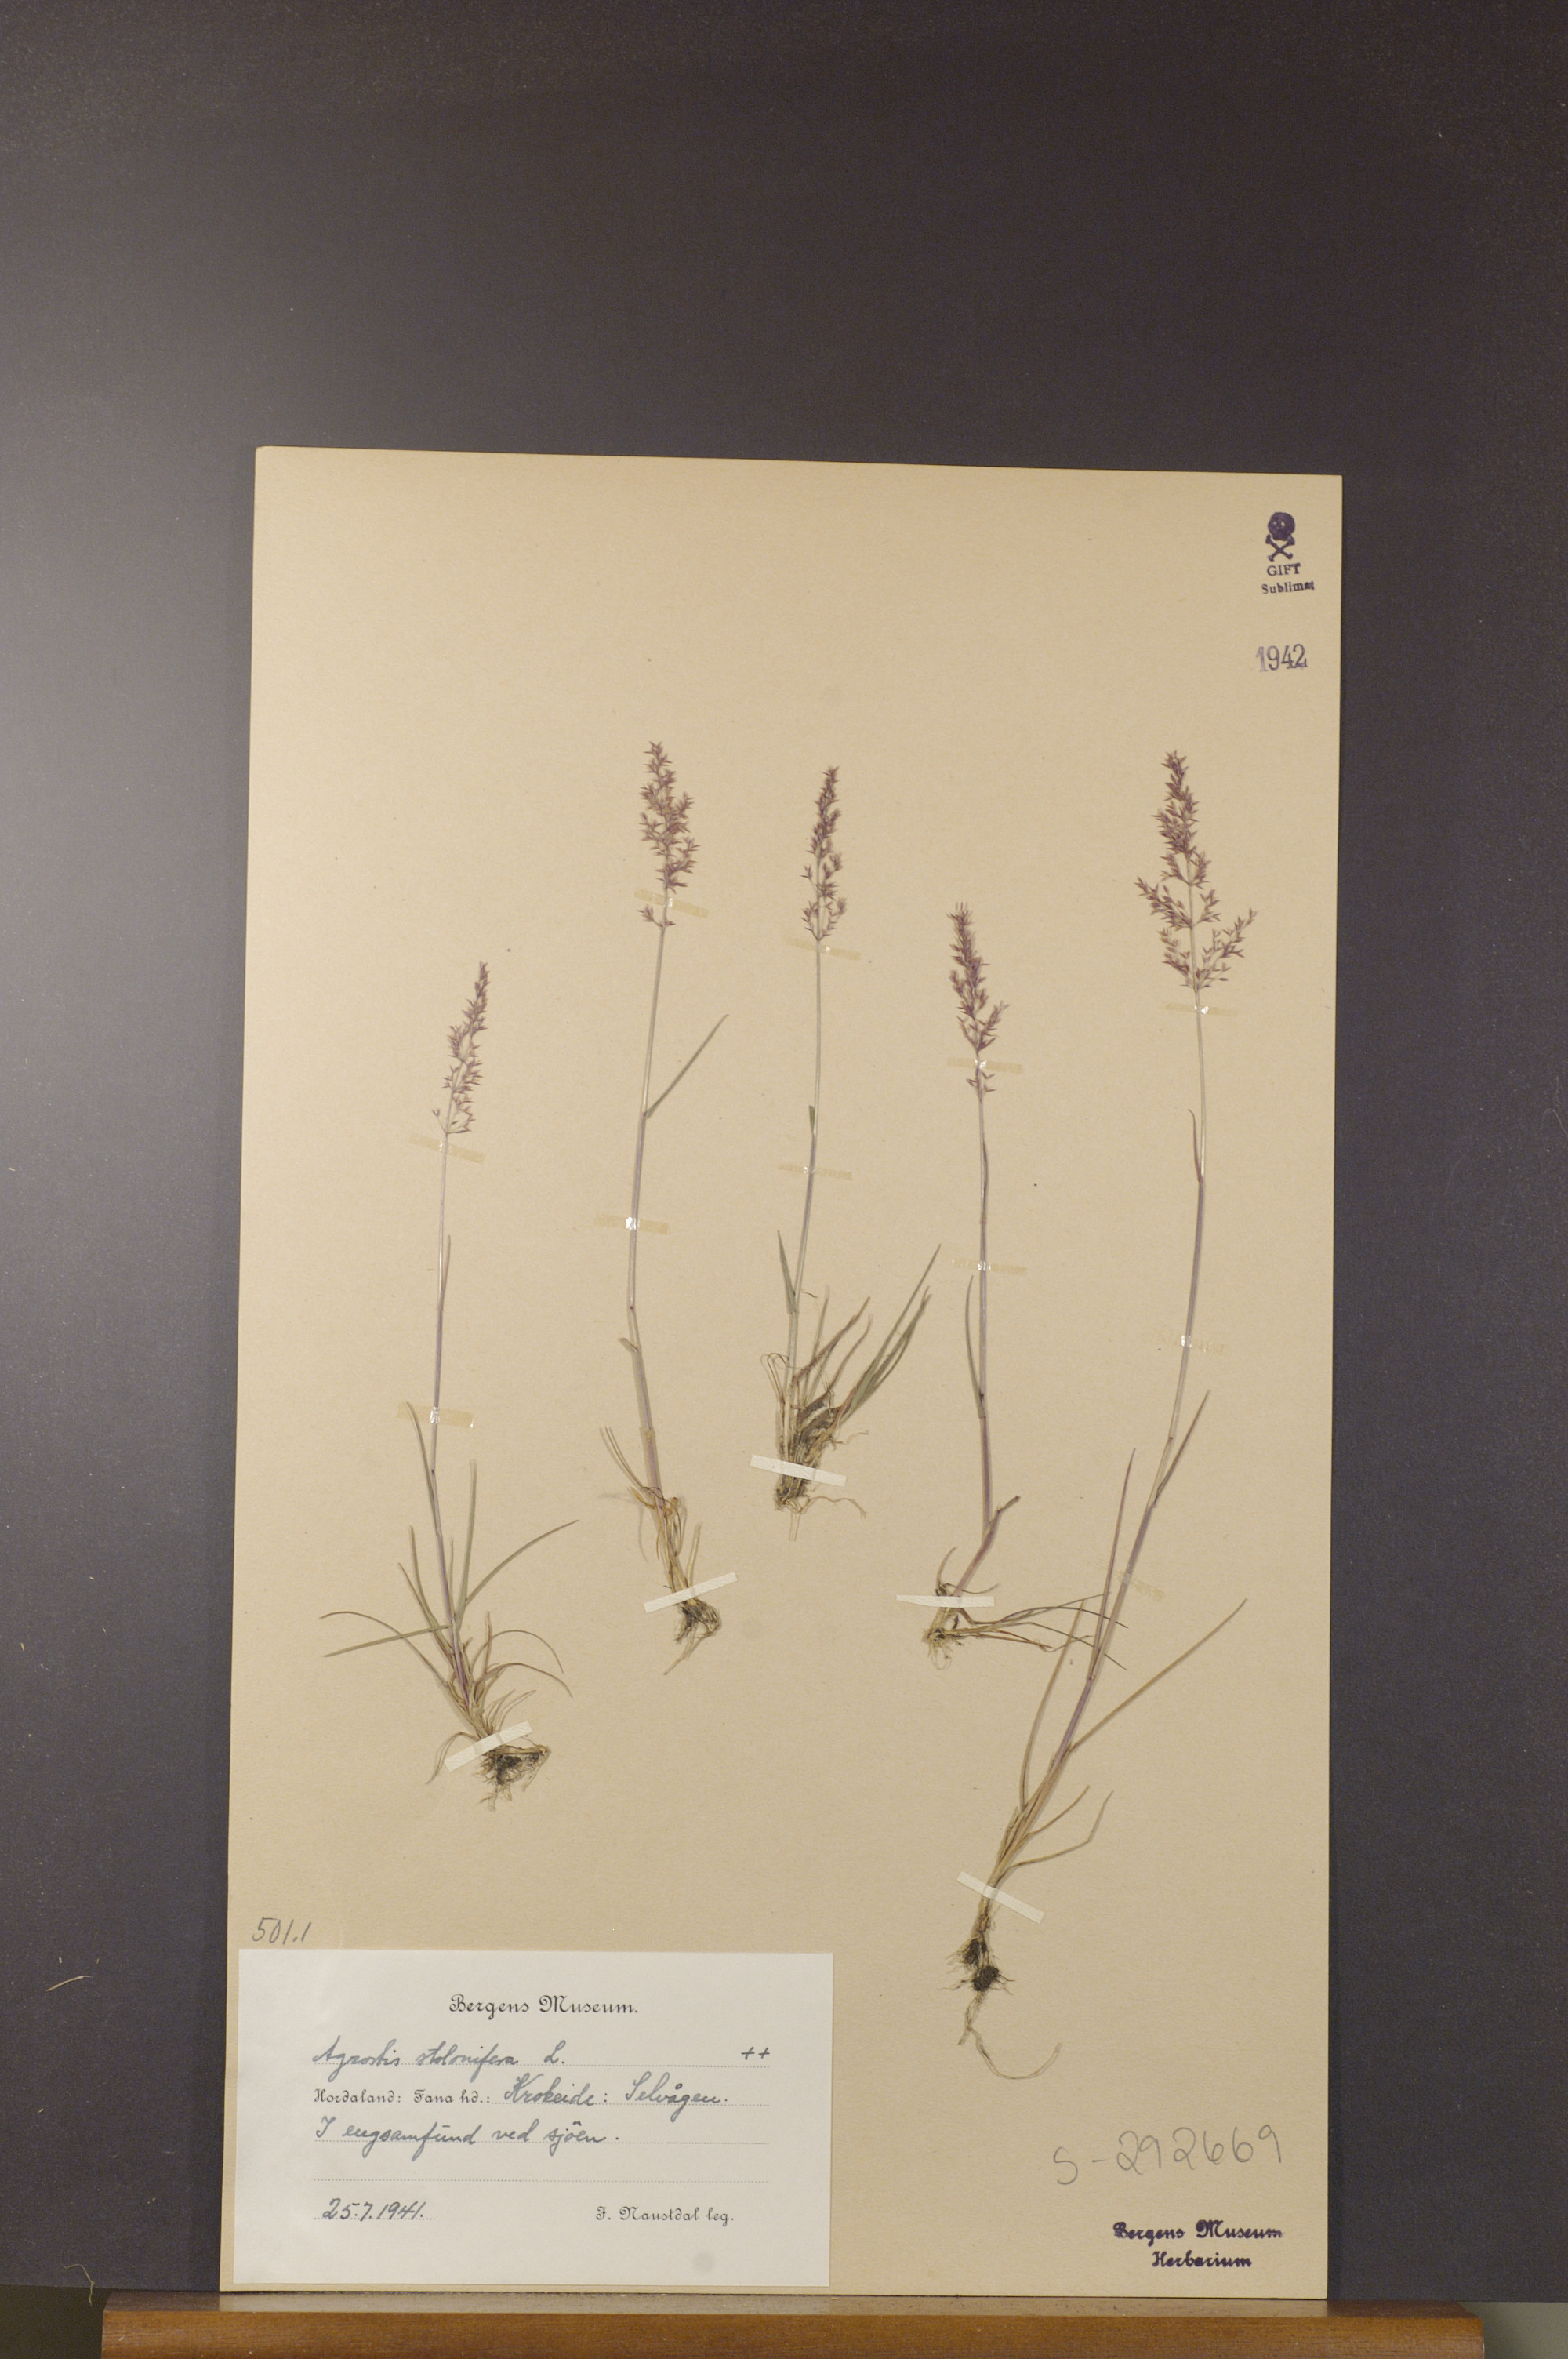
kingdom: Plantae
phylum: Tracheophyta
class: Liliopsida
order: Poales
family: Poaceae
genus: Agrostis
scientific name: Agrostis stolonifera
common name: Creeping bentgrass
